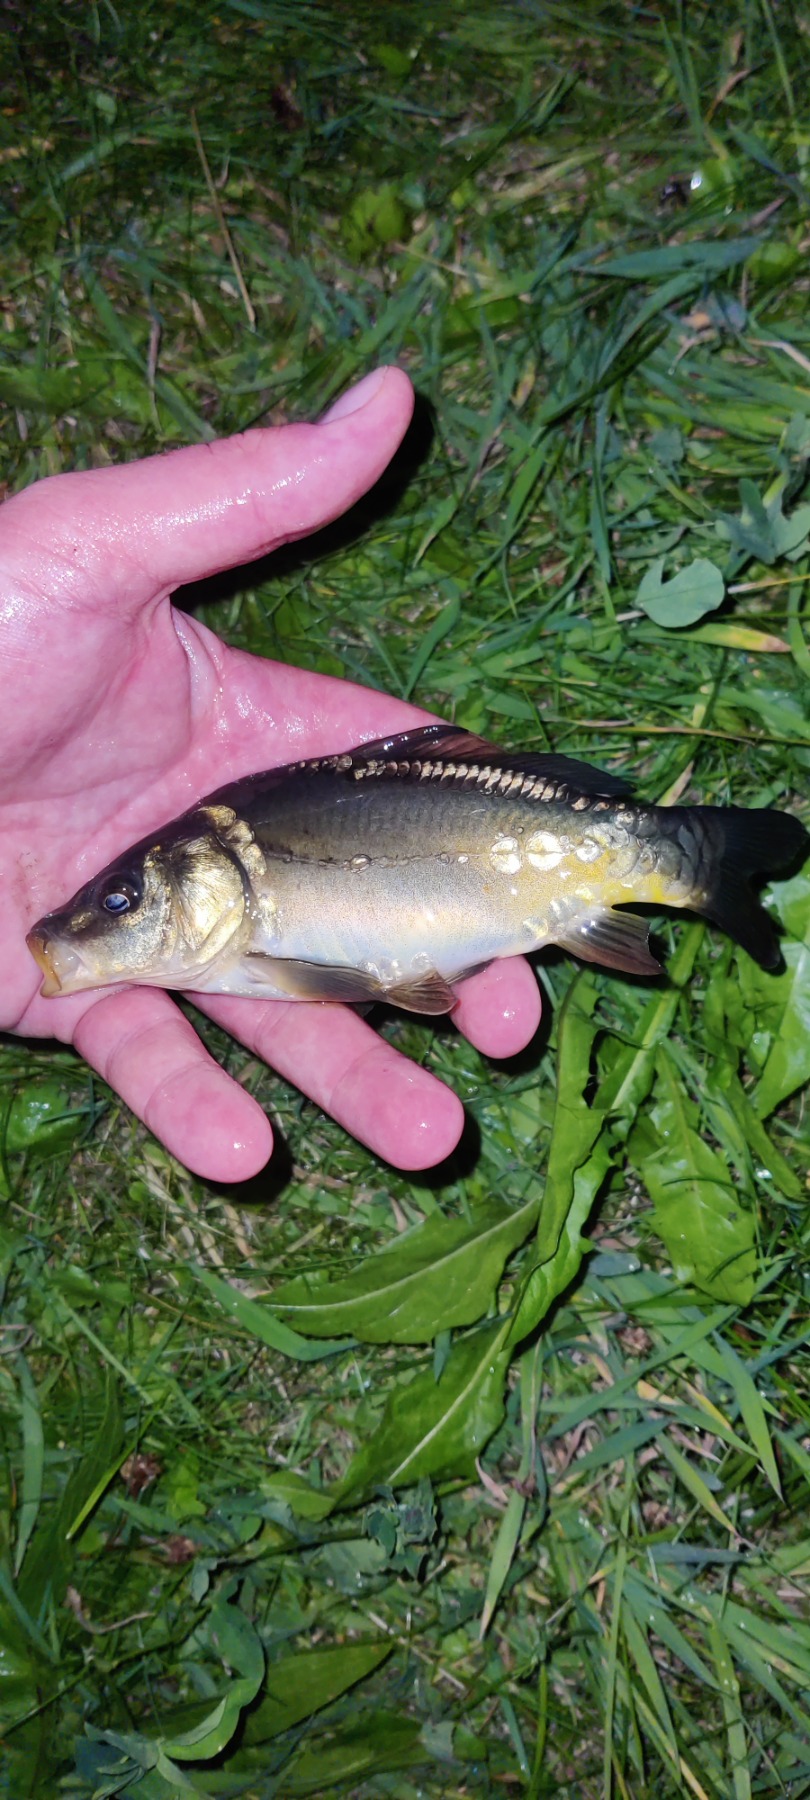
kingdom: Animalia
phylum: Chordata
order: Cypriniformes
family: Cyprinidae
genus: Cyprinus
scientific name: Cyprinus carpio
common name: Karpe
